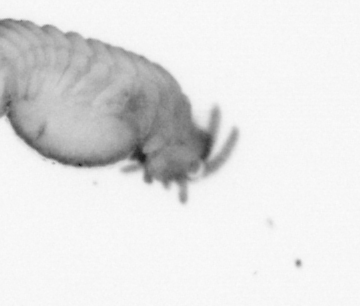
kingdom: Animalia
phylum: Annelida
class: Polychaeta
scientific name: Polychaeta
